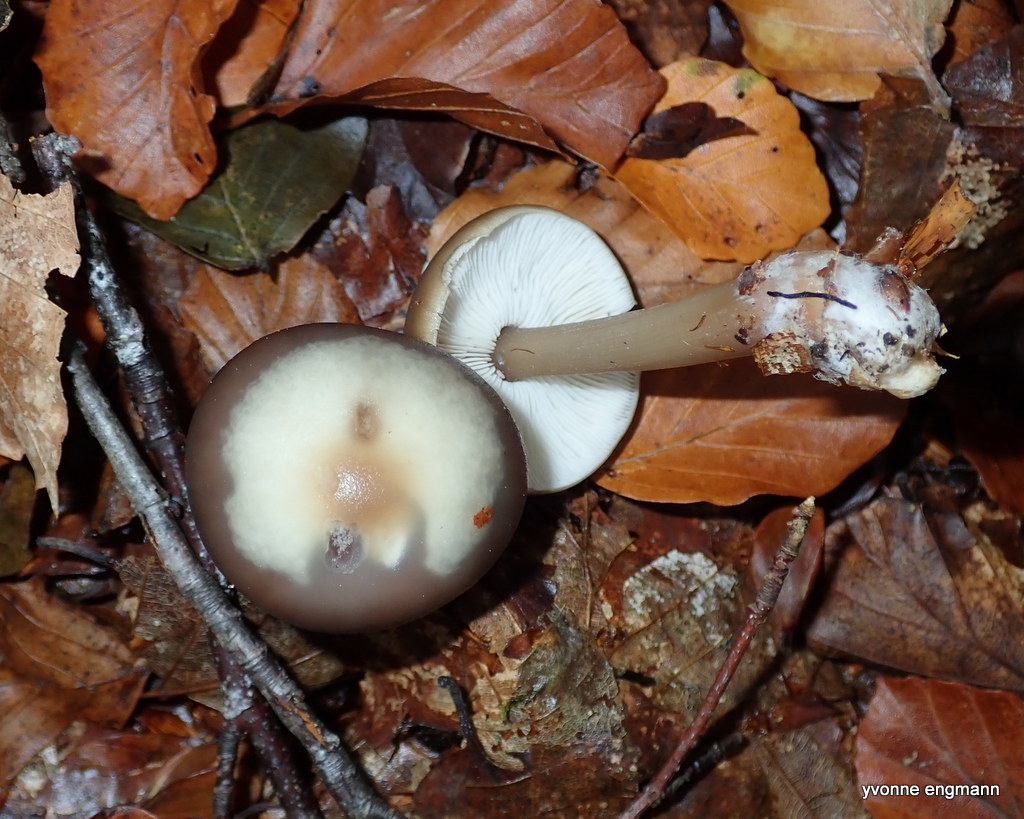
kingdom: Fungi
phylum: Basidiomycota
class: Agaricomycetes
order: Agaricales
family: Omphalotaceae
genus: Rhodocollybia
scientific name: Rhodocollybia asema
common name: horngrå fladhat
